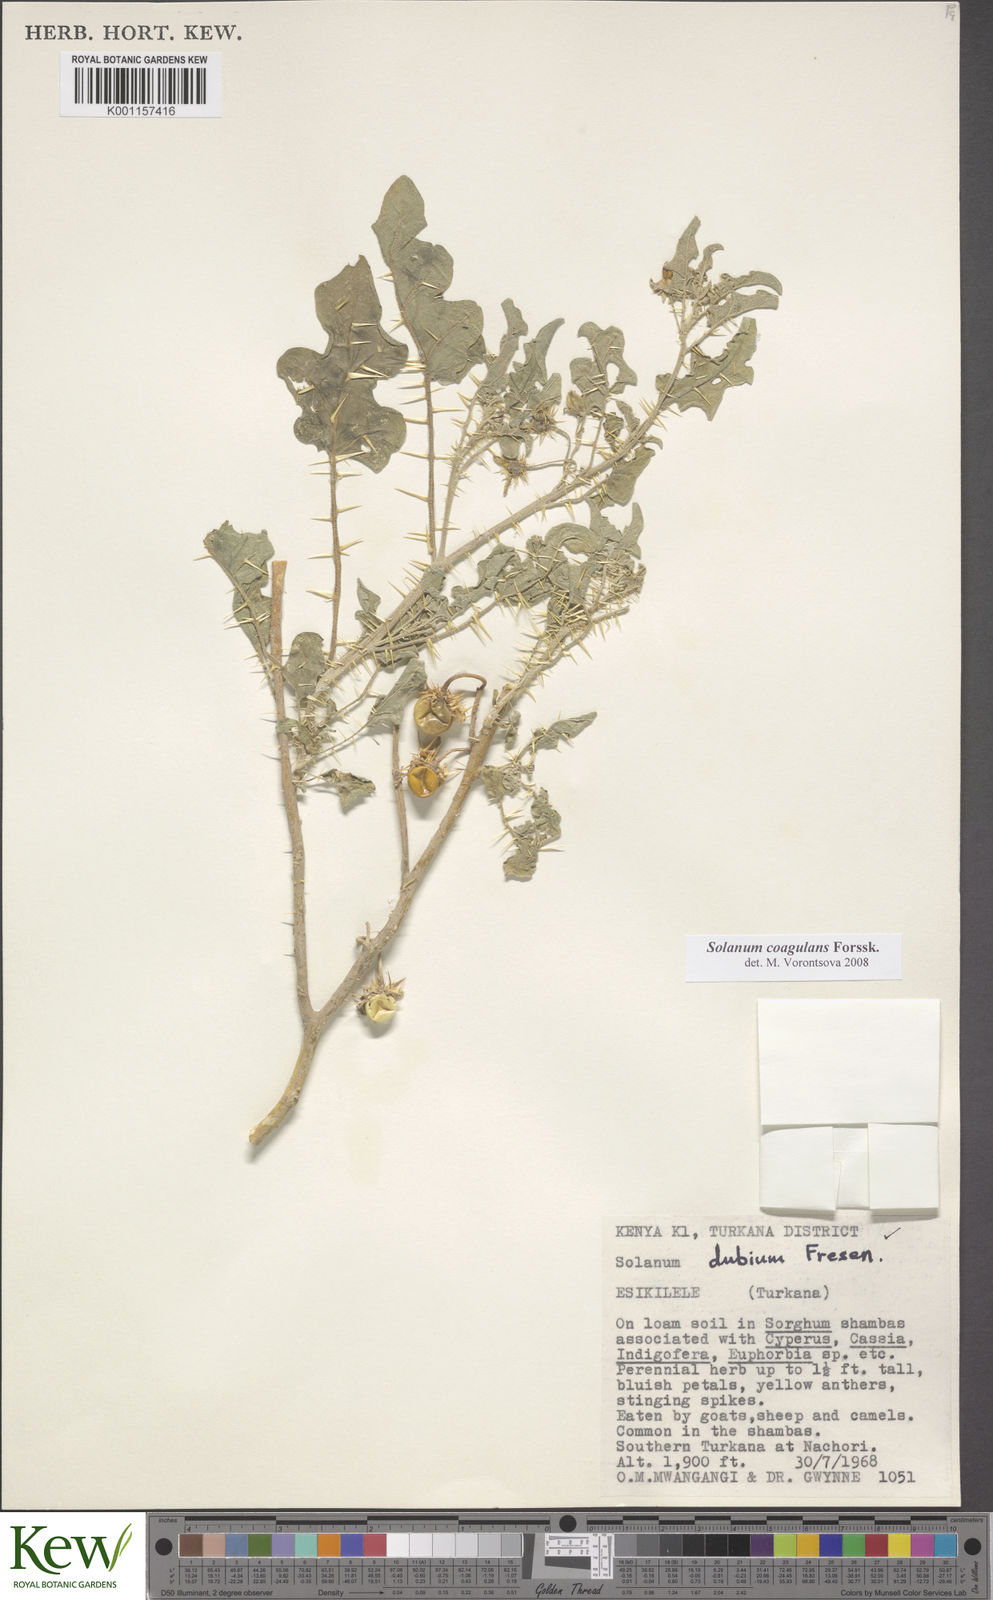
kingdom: Plantae
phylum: Tracheophyta
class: Magnoliopsida
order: Solanales
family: Solanaceae
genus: Solanum
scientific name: Solanum coagulans
